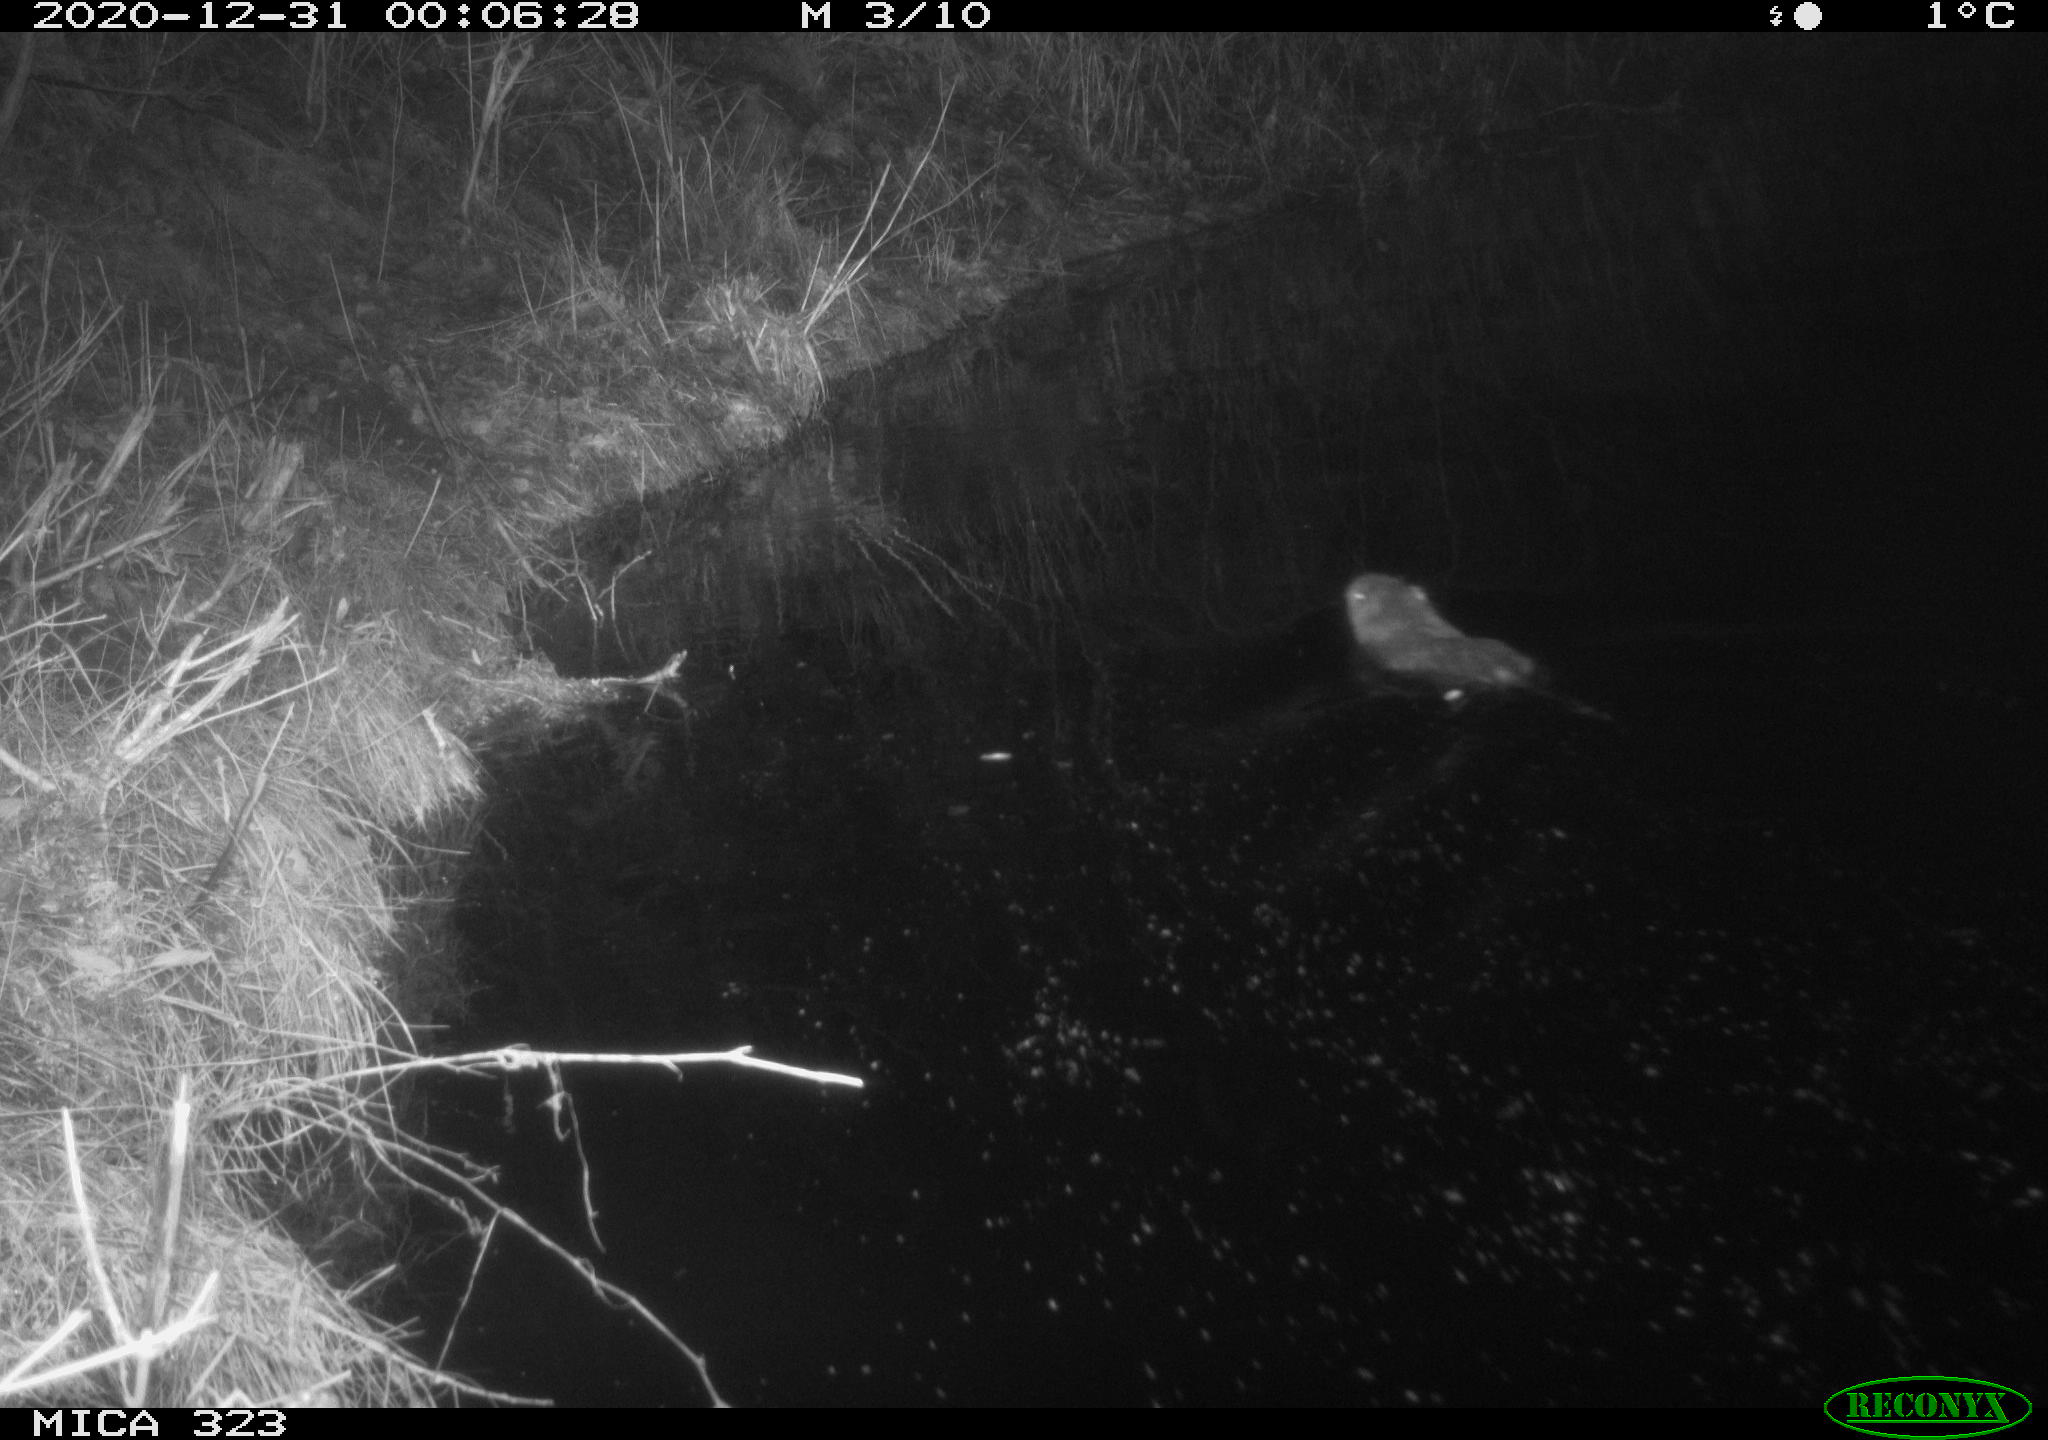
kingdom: Animalia
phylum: Chordata
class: Mammalia
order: Rodentia
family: Myocastoridae
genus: Myocastor
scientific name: Myocastor coypus
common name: Coypu
